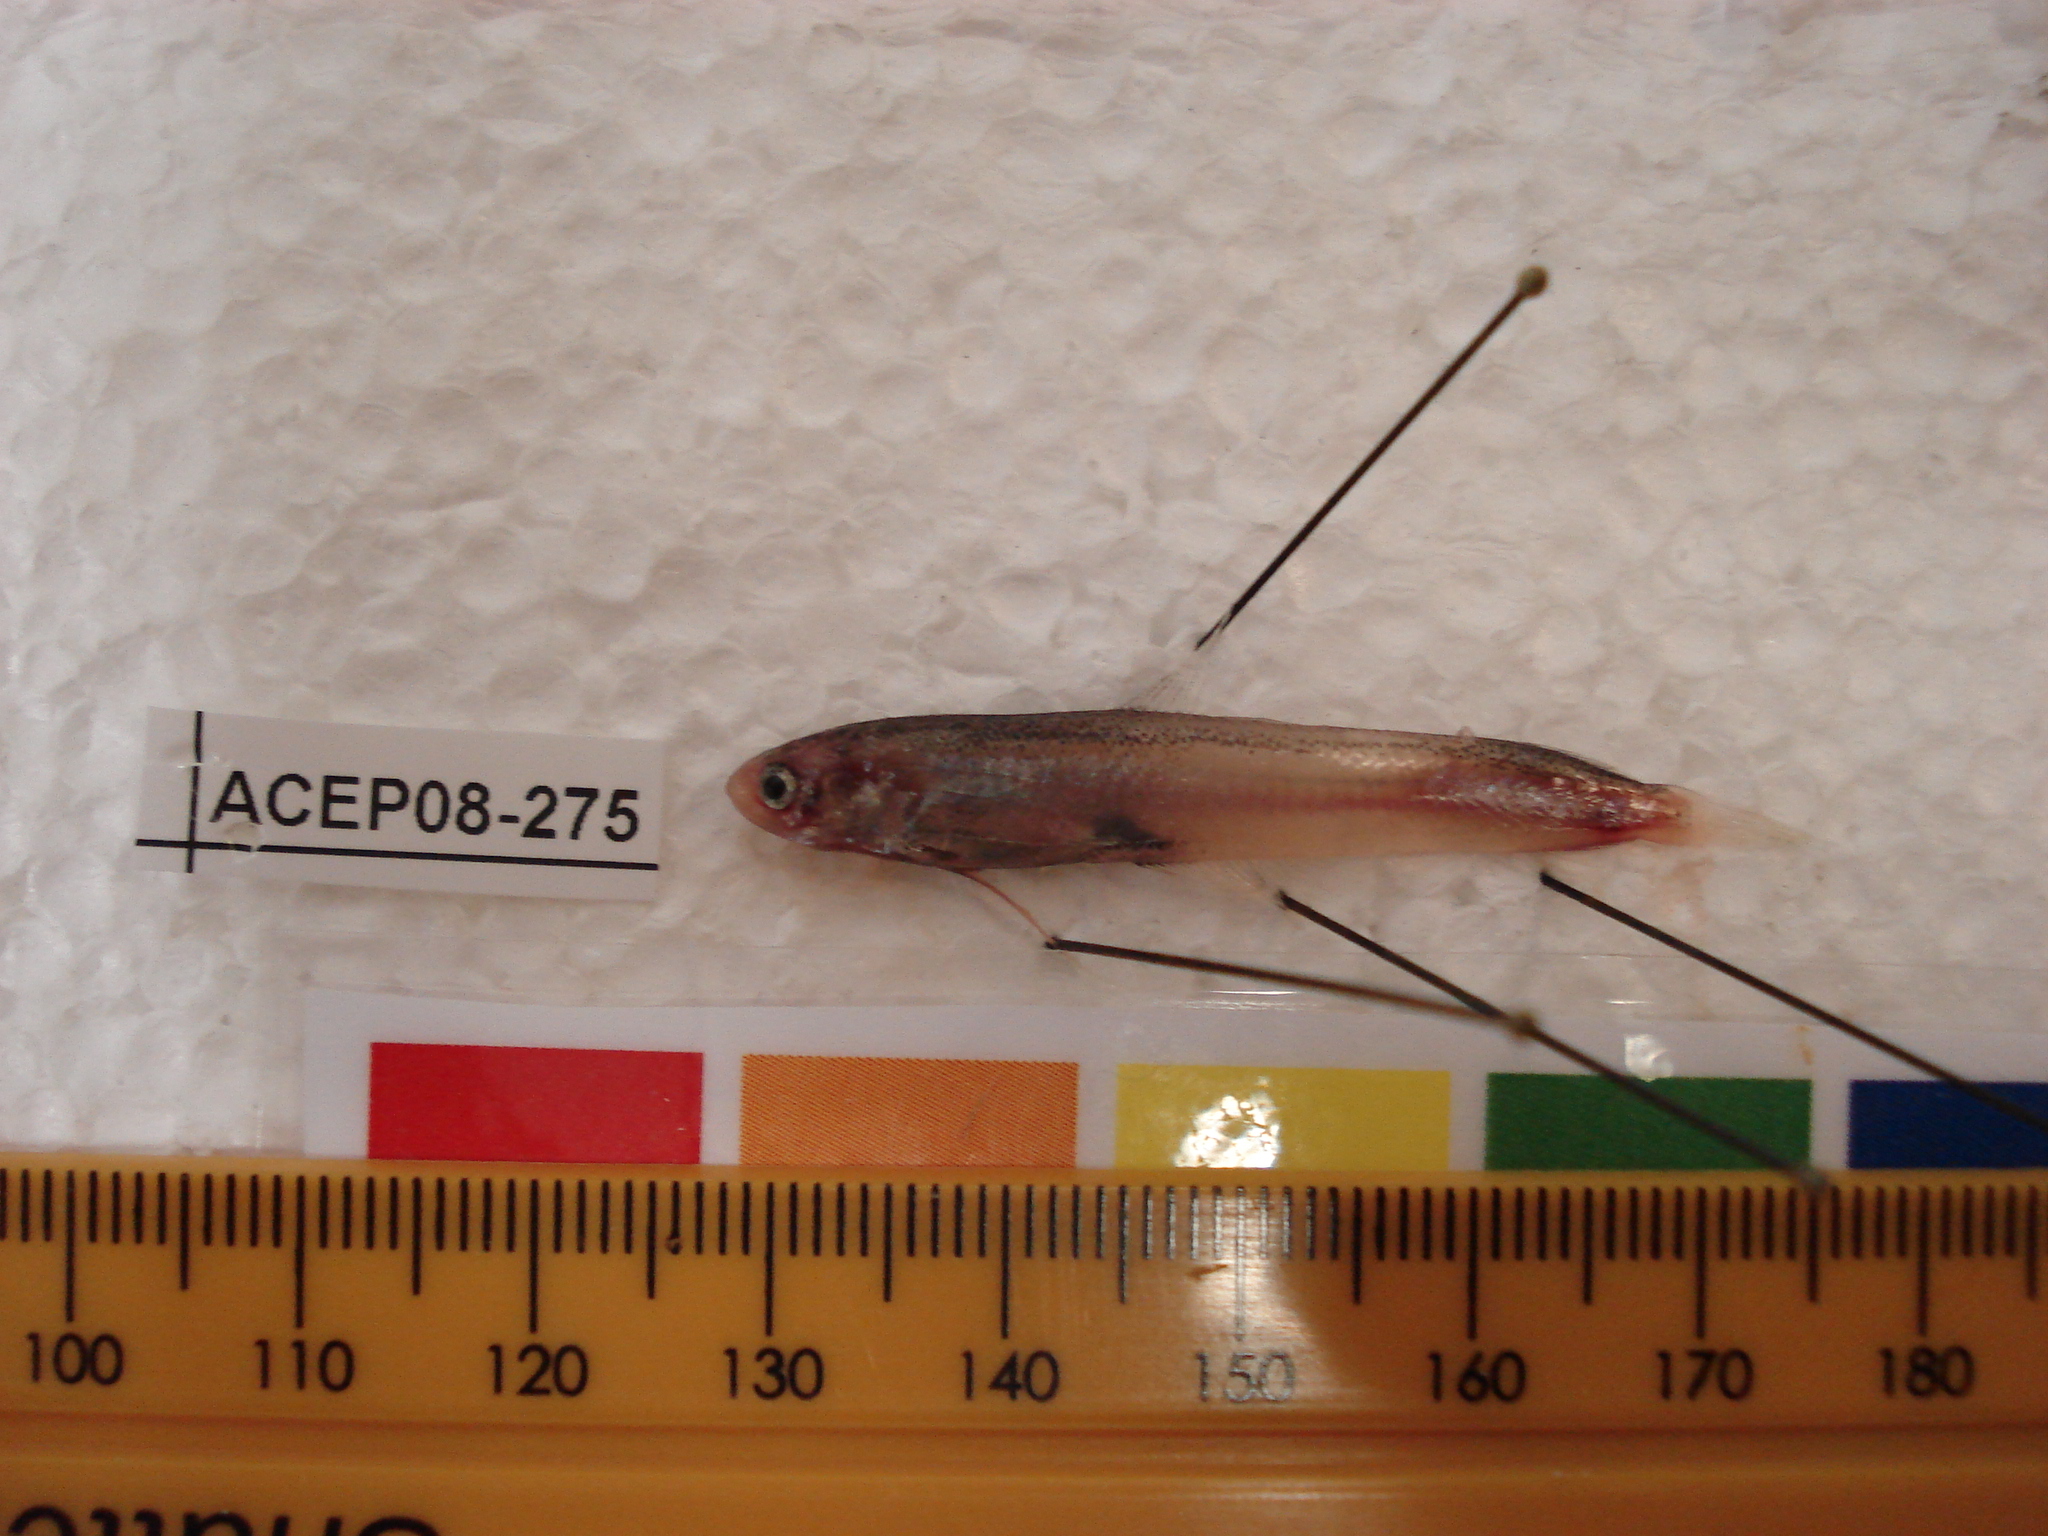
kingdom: Animalia
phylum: Chordata
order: Gadiformes
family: Bregmacerotidae
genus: Bregmaceros
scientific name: Bregmaceros
